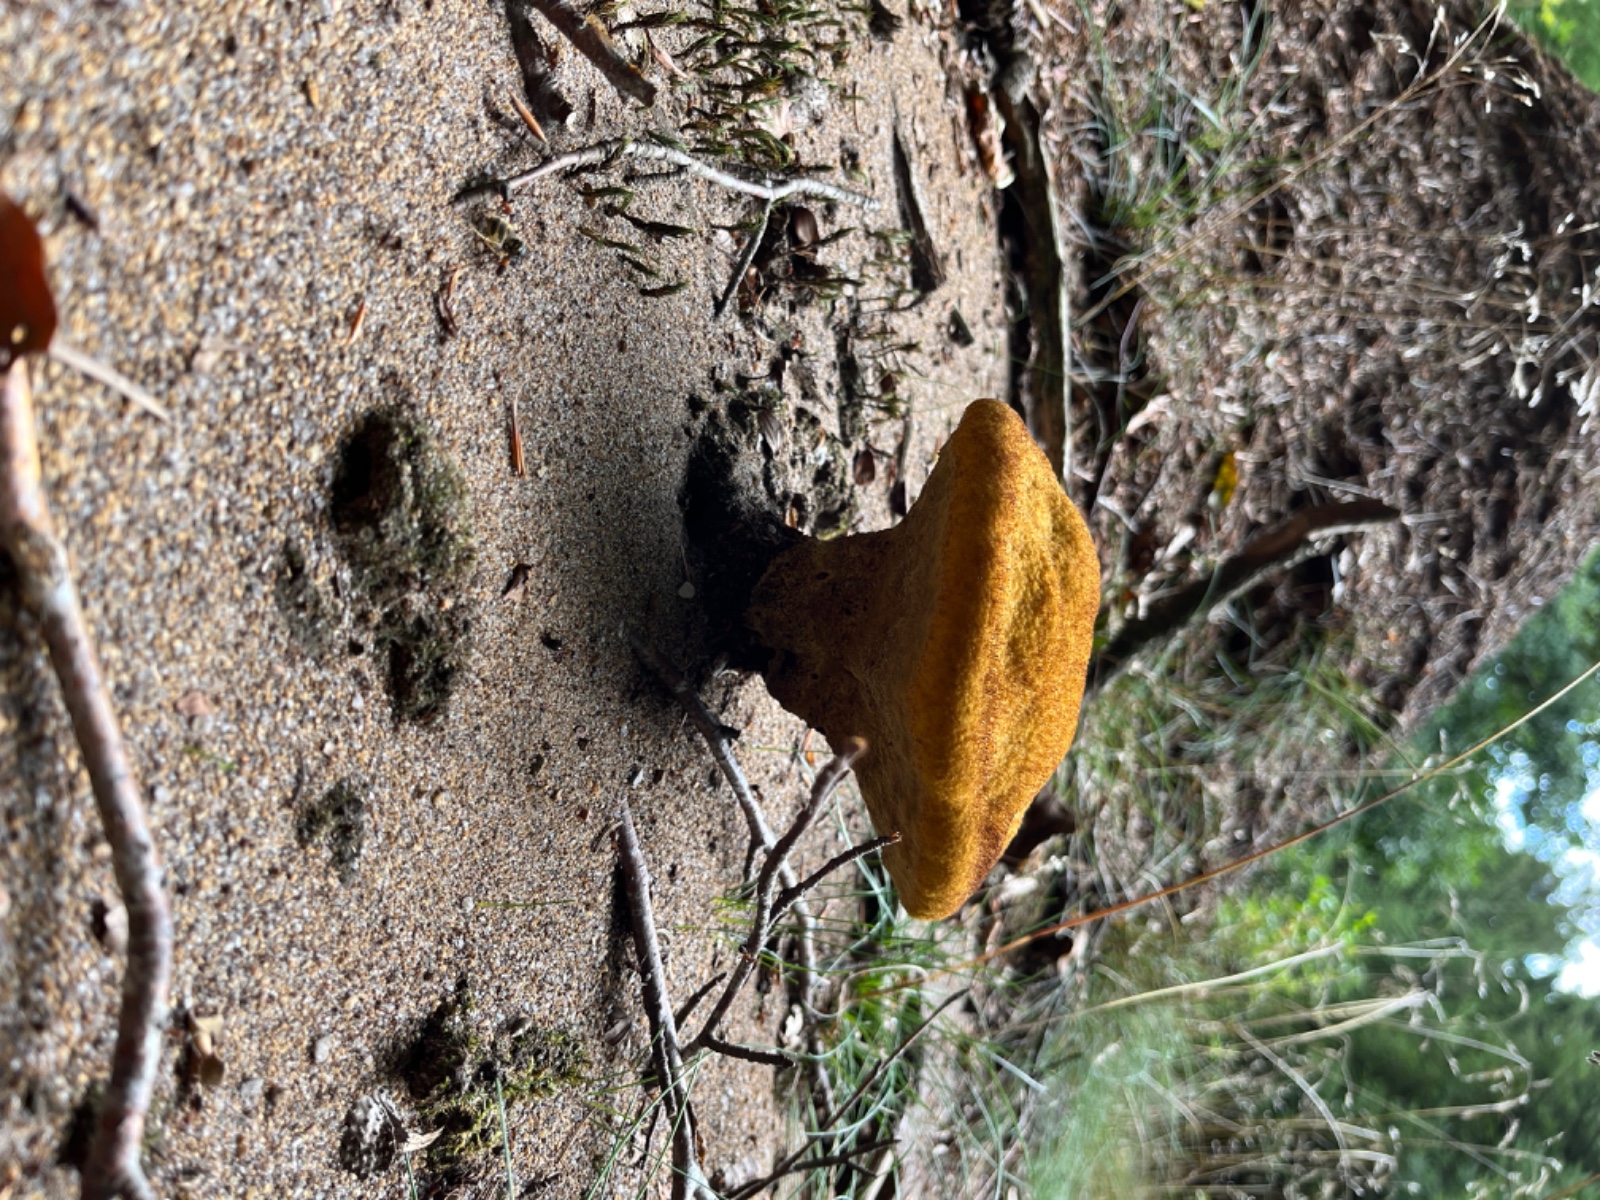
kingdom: Fungi
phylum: Basidiomycota
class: Agaricomycetes
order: Polyporales
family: Laetiporaceae
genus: Phaeolus
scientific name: Phaeolus schweinitzii
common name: brunporesvamp
